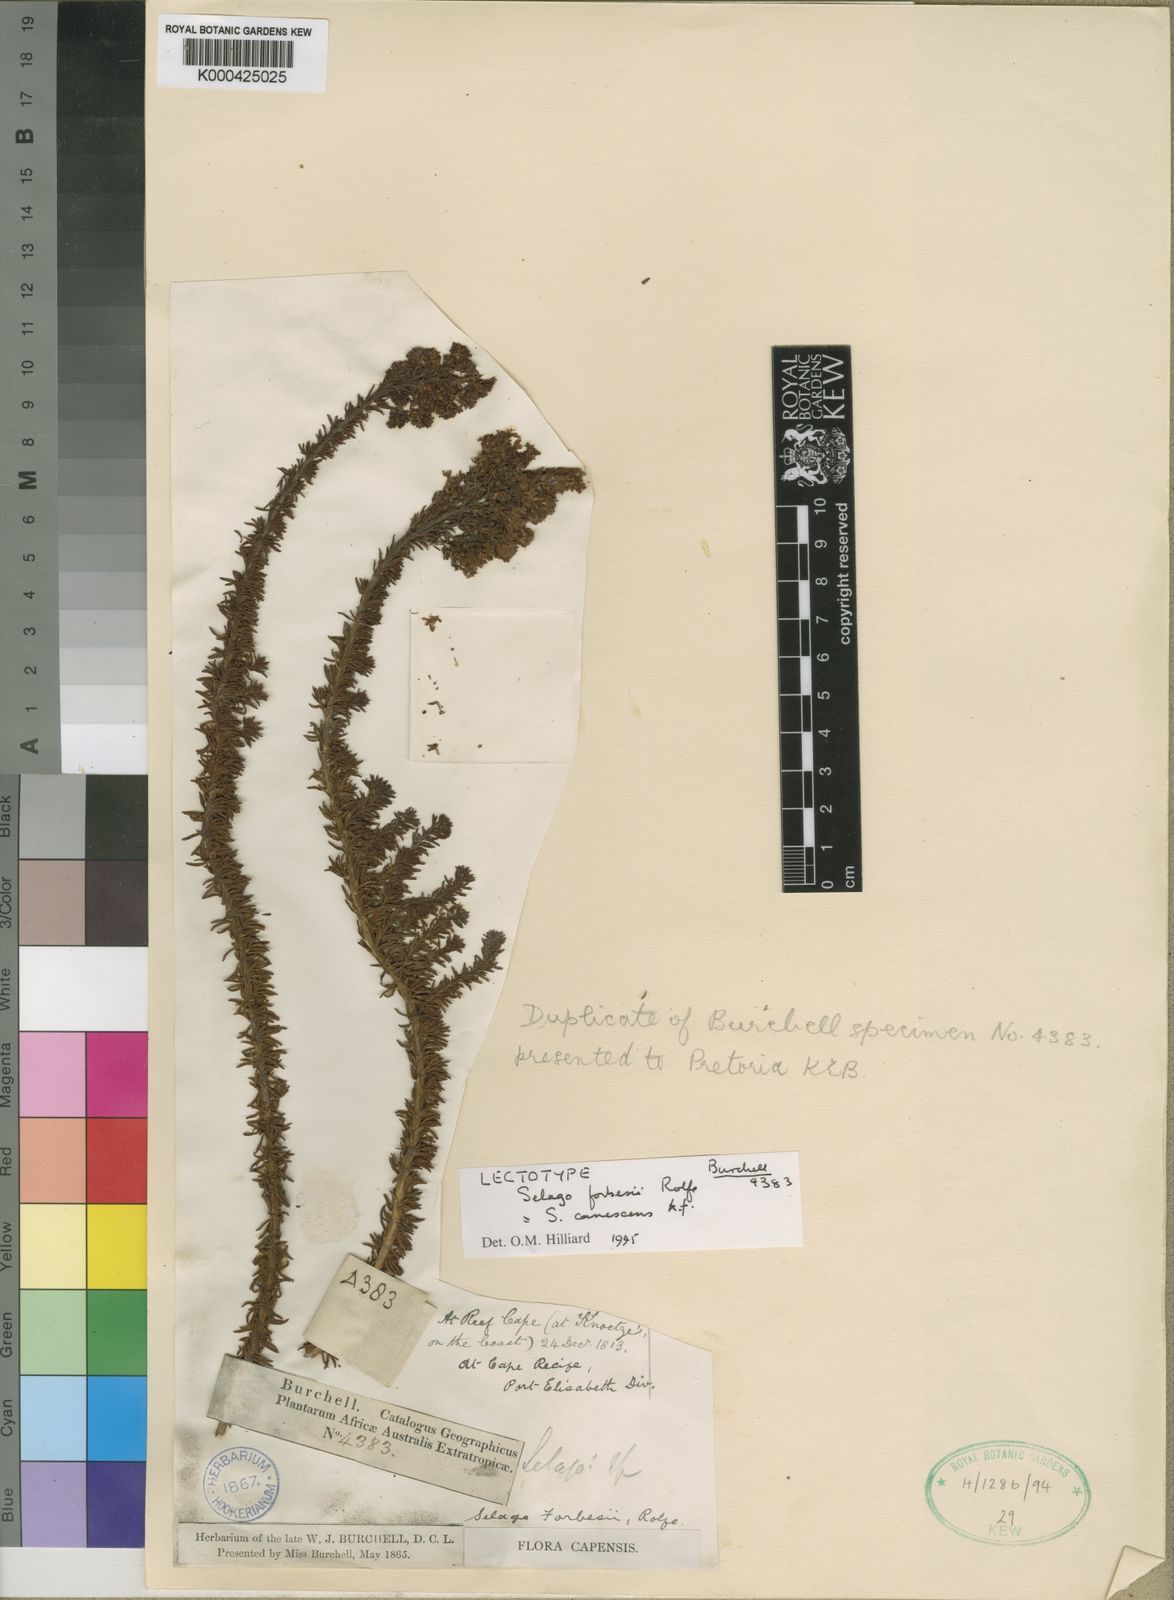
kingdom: Plantae
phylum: Tracheophyta
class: Magnoliopsida
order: Lamiales
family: Scrophulariaceae
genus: Selago
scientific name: Selago canescens
